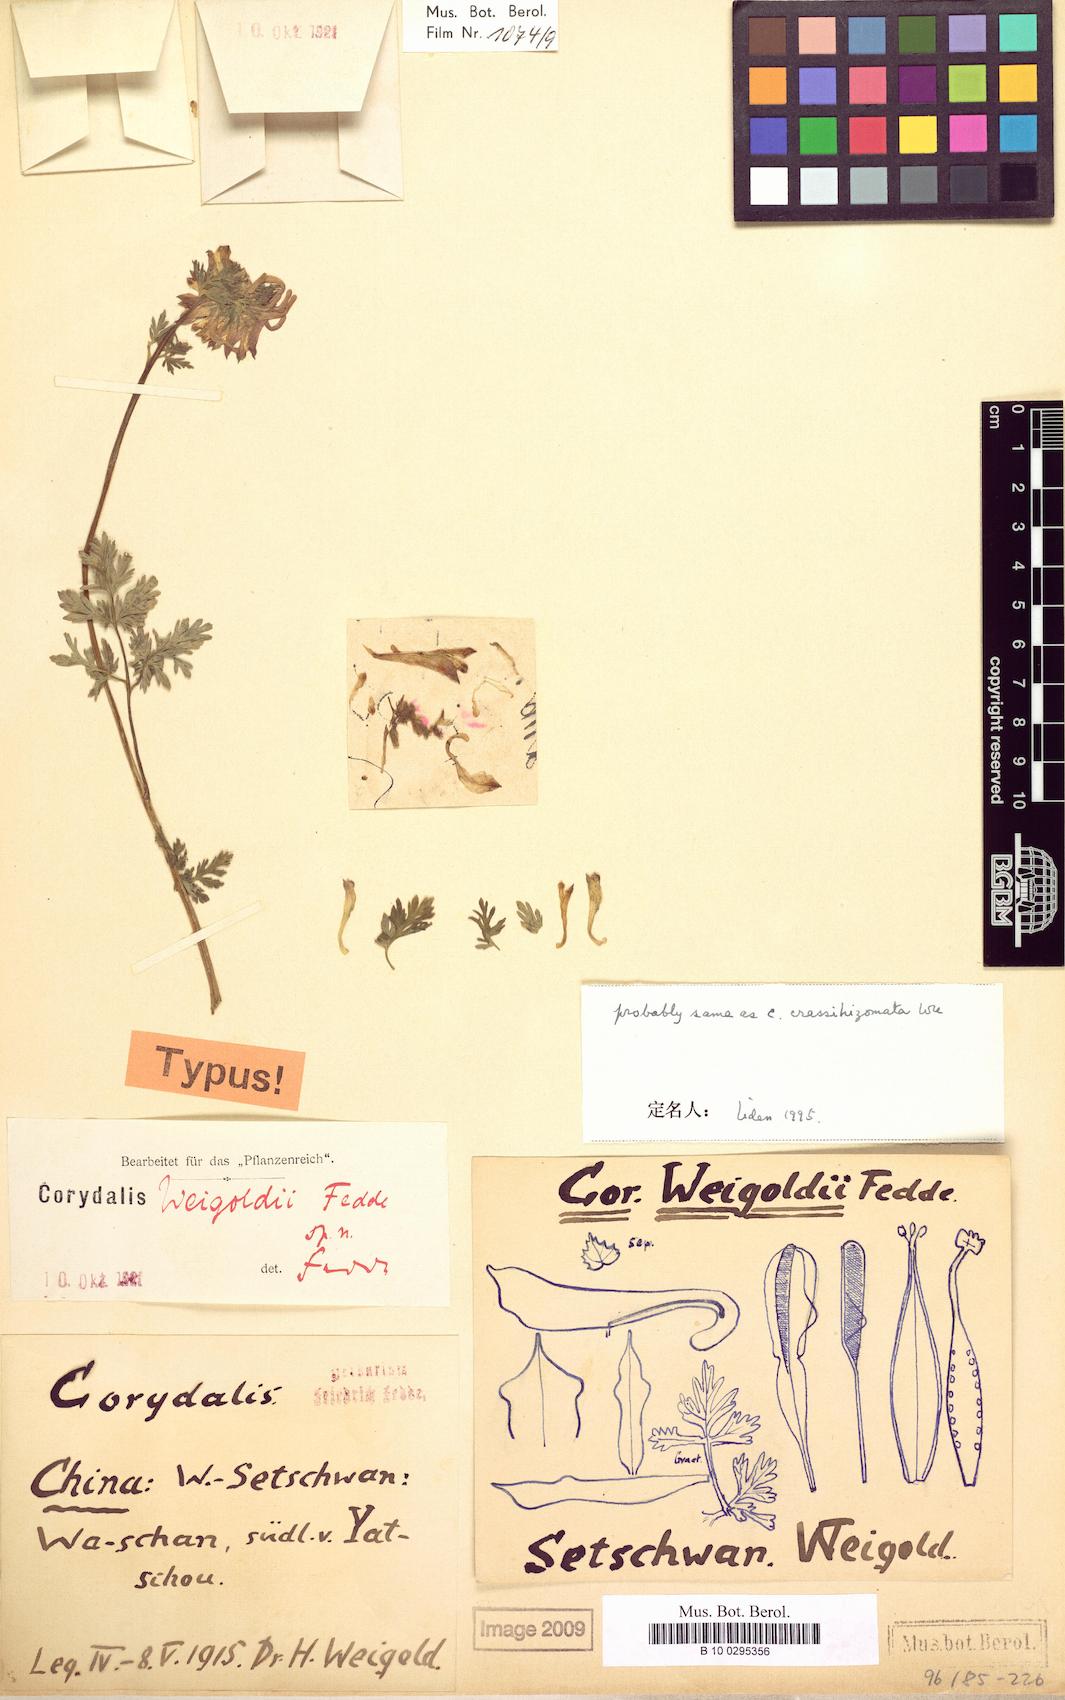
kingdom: Plantae
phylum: Tracheophyta
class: Magnoliopsida
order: Ranunculales
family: Papaveraceae
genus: Corydalis
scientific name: Corydalis weigoldii
